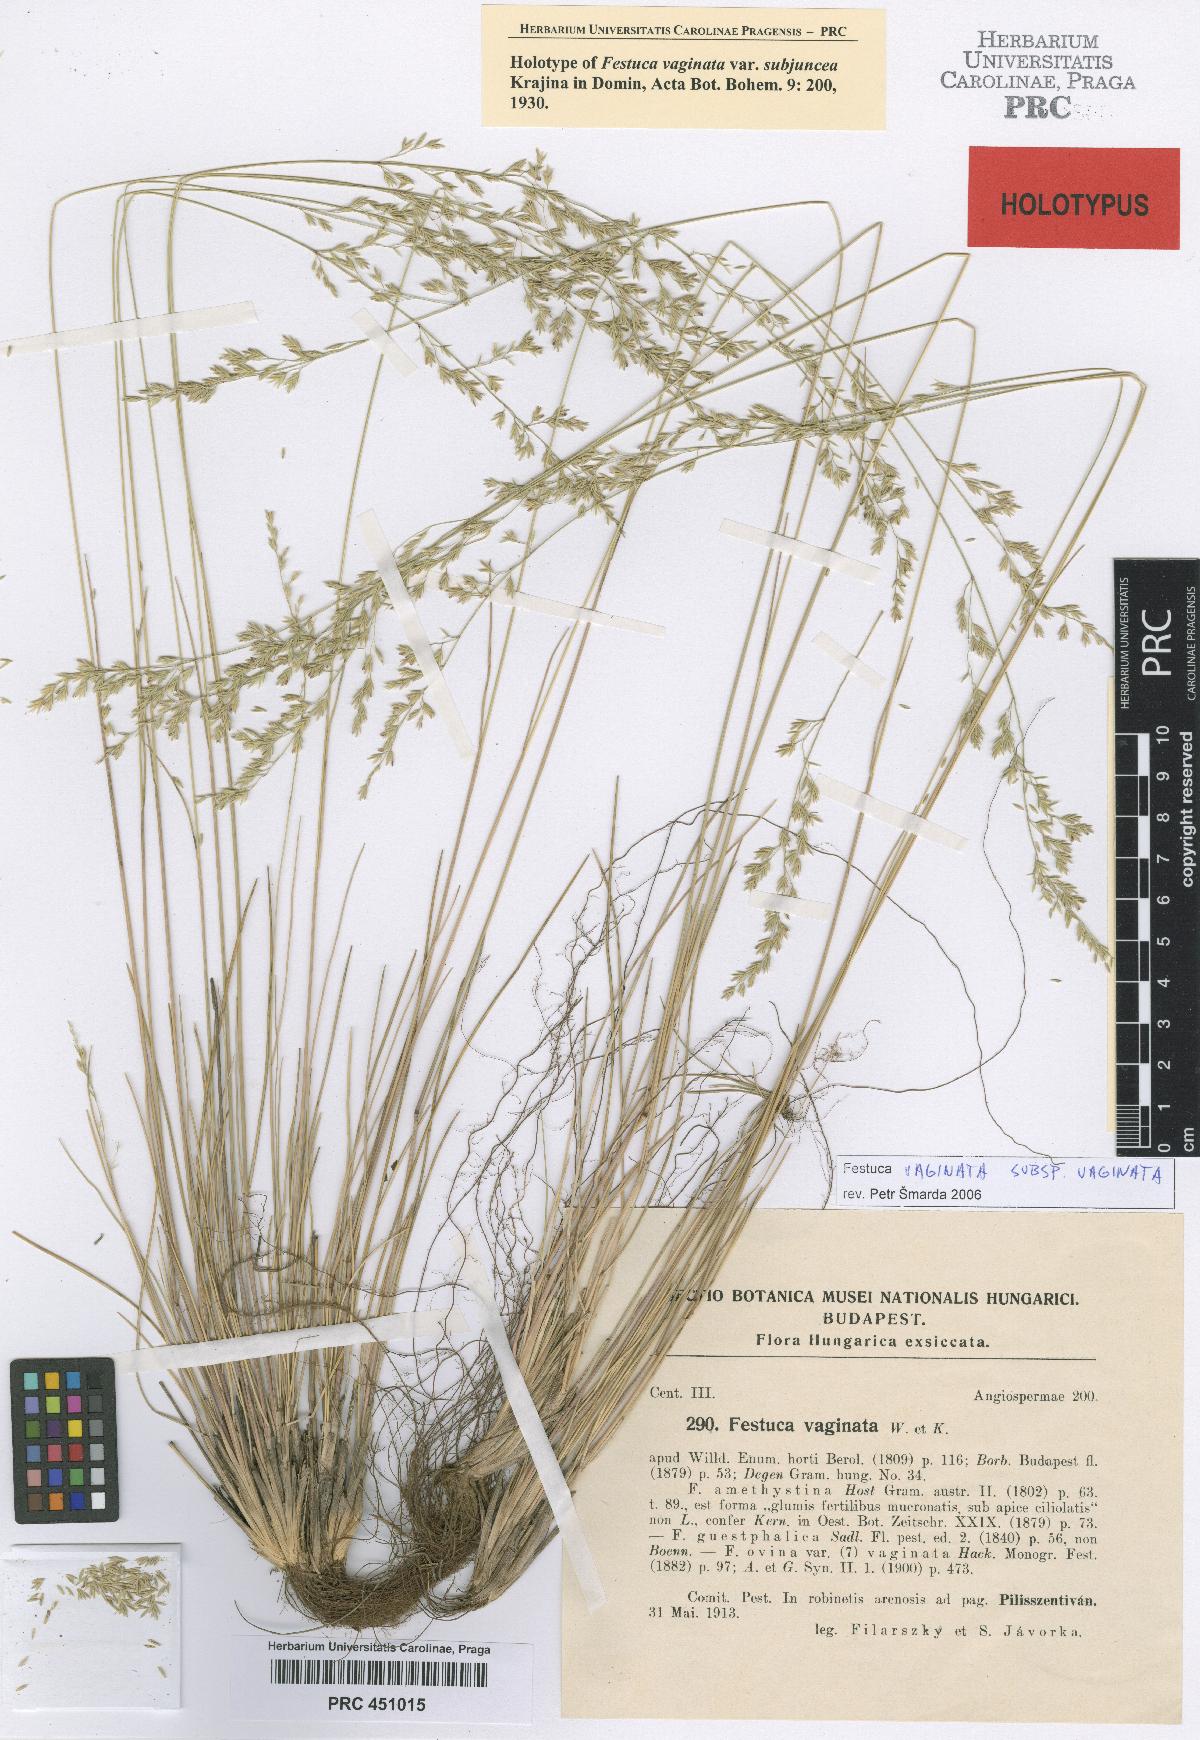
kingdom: Plantae
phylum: Tracheophyta
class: Liliopsida
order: Poales
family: Poaceae
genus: Festuca
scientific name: Festuca vaginata
